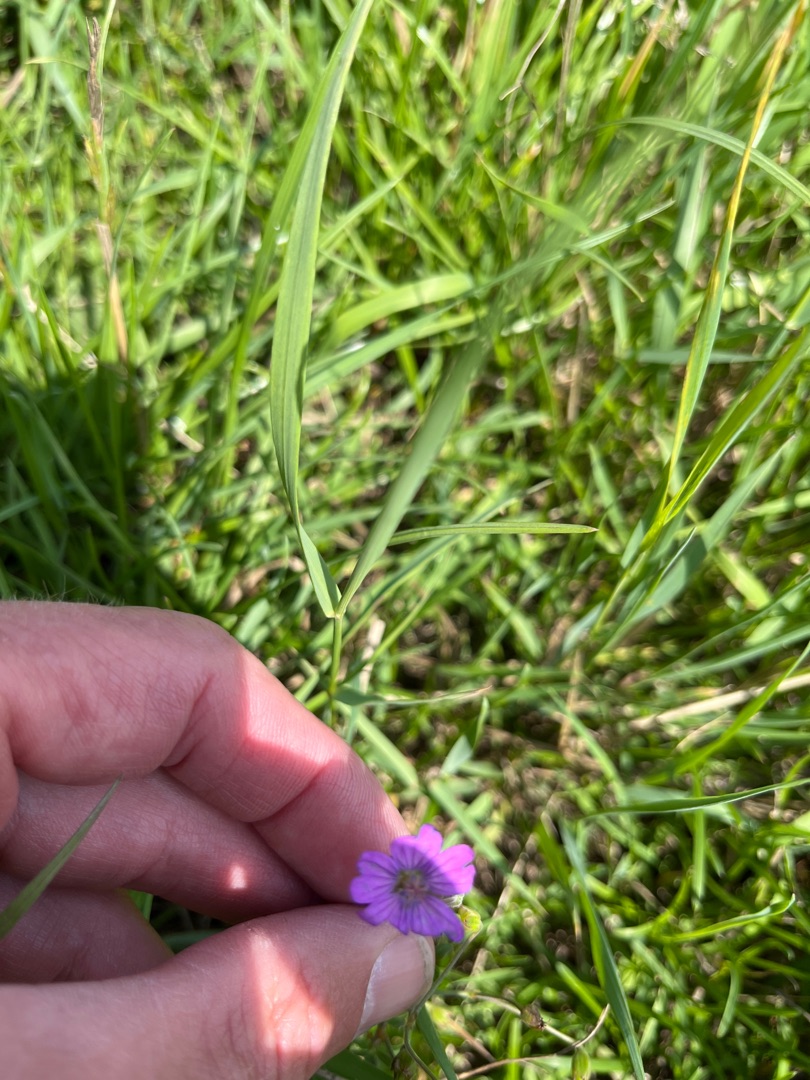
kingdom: Plantae
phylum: Tracheophyta
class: Magnoliopsida
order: Geraniales
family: Geraniaceae
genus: Geranium
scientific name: Geranium pyrenaicum
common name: Pyrenæisk storkenæb
